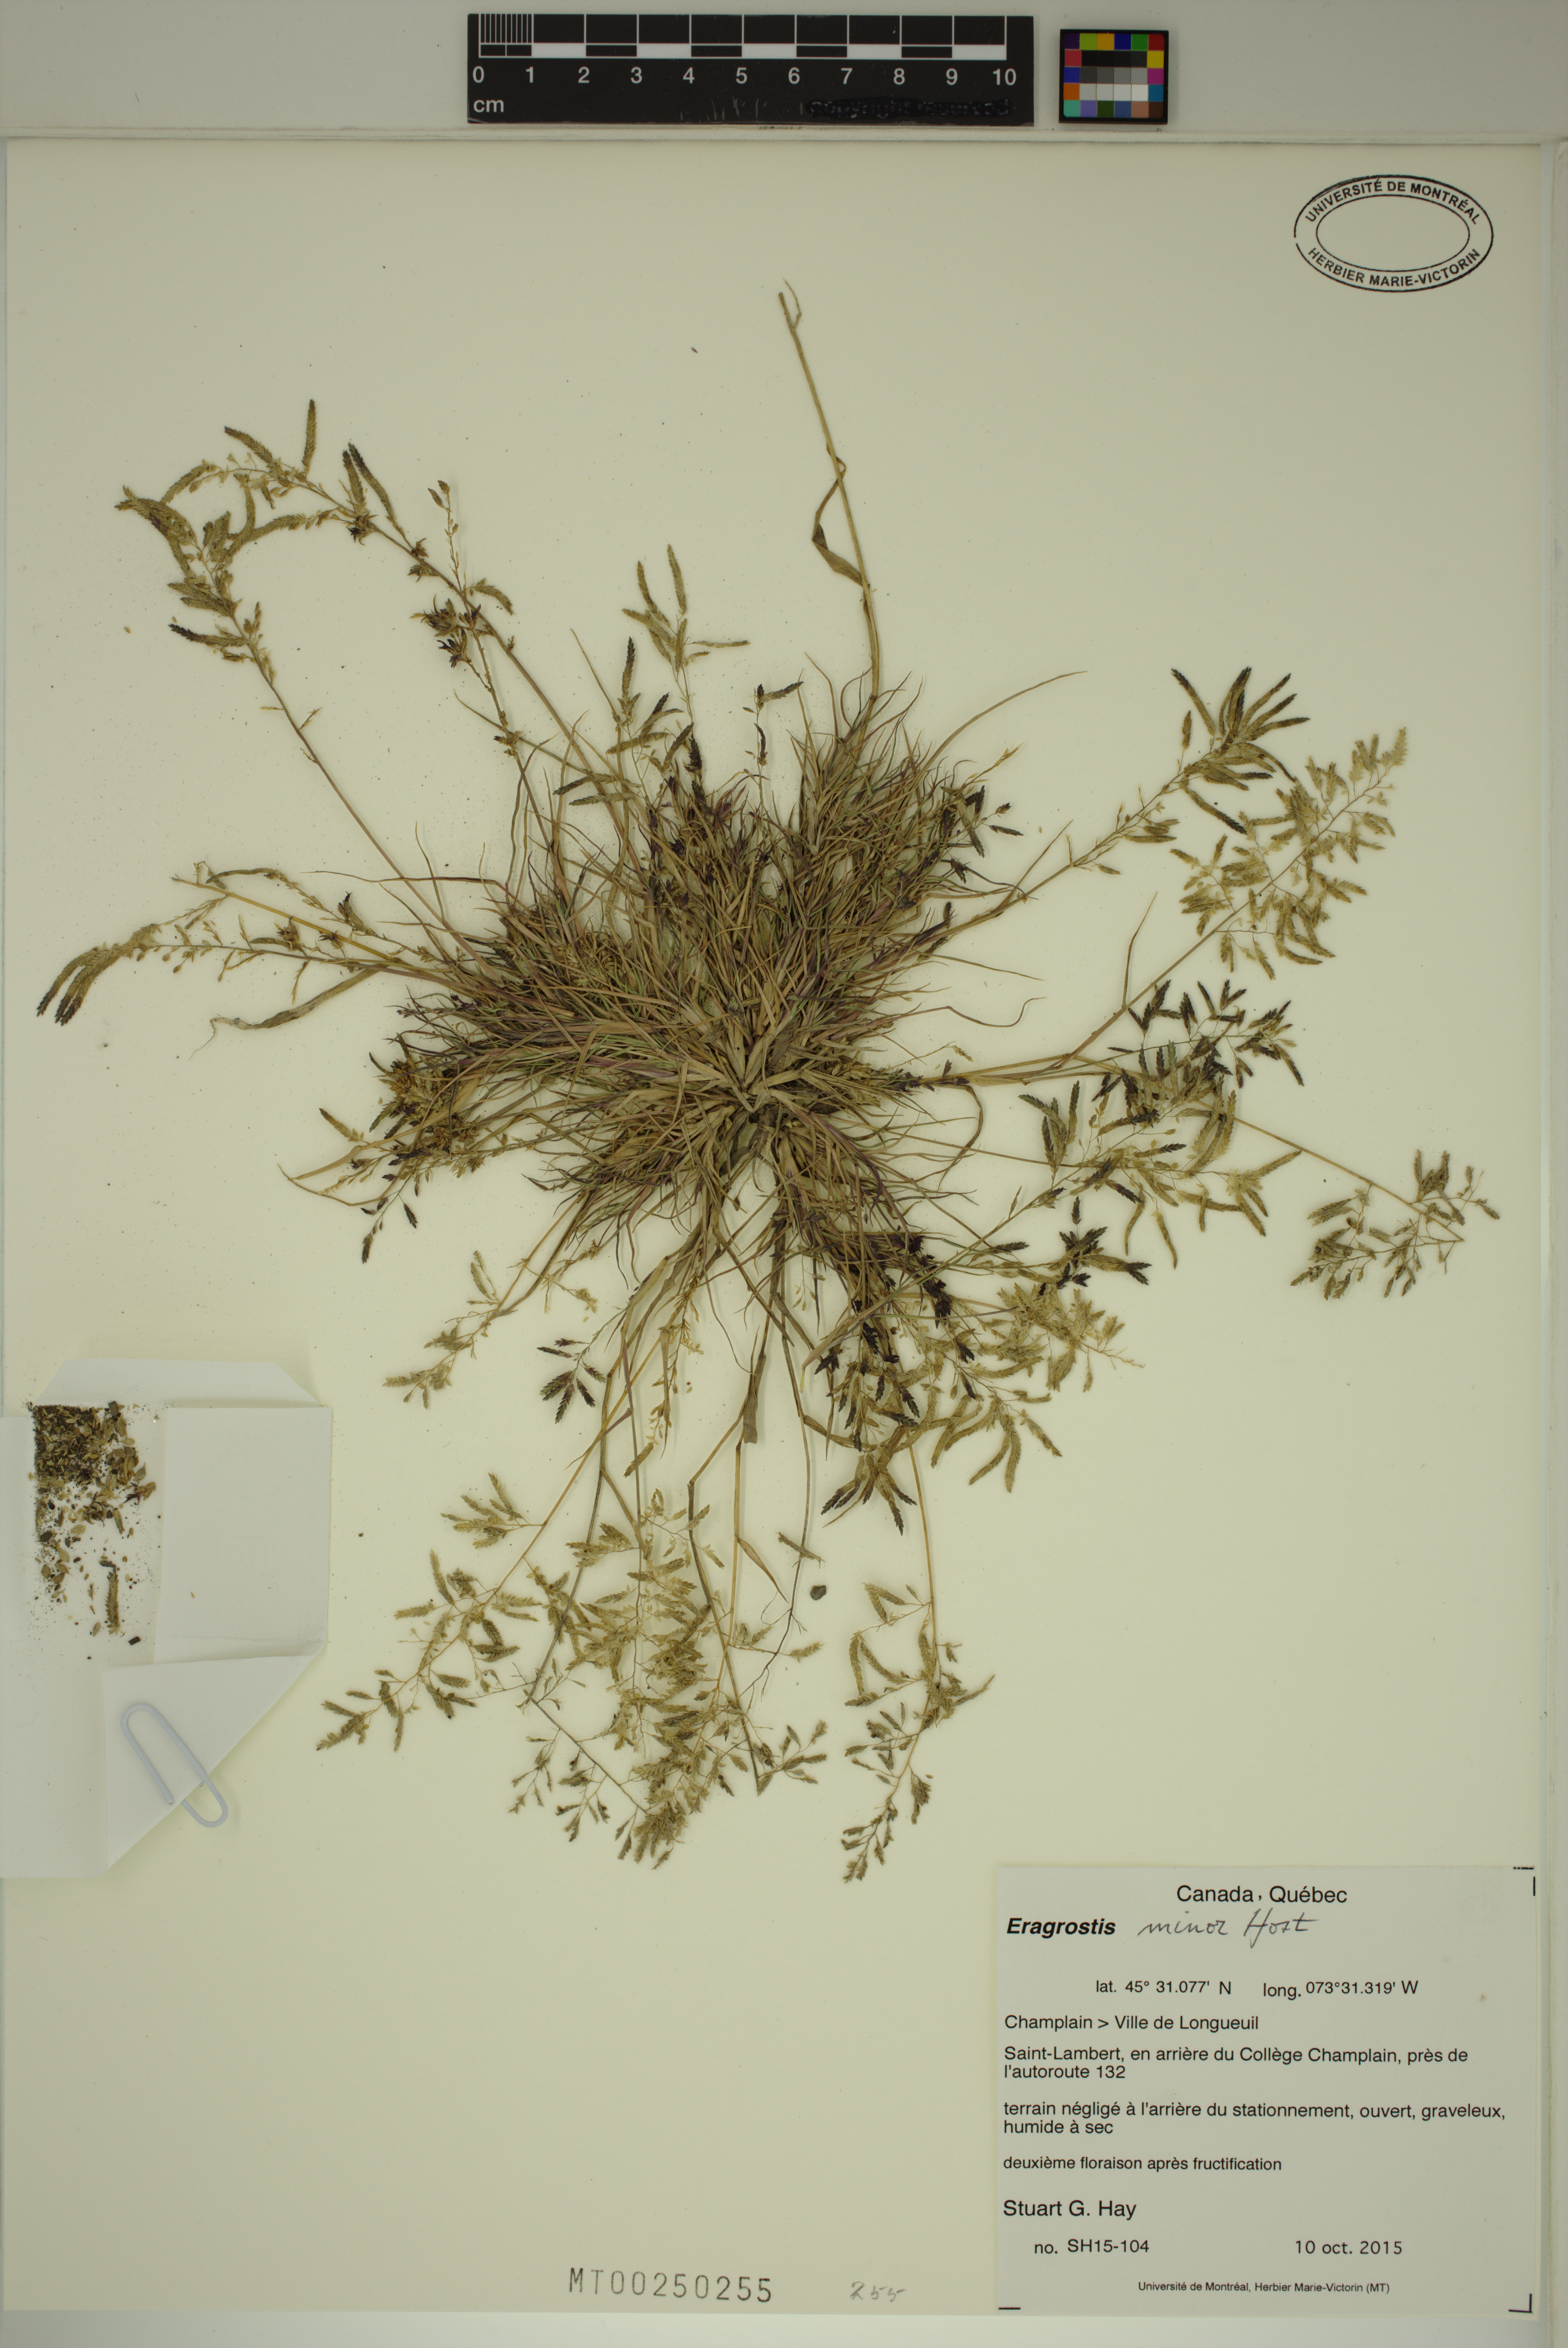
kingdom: Plantae
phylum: Tracheophyta
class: Liliopsida
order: Poales
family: Poaceae
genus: Eragrostis
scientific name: Eragrostis minor
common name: Small love-grass
